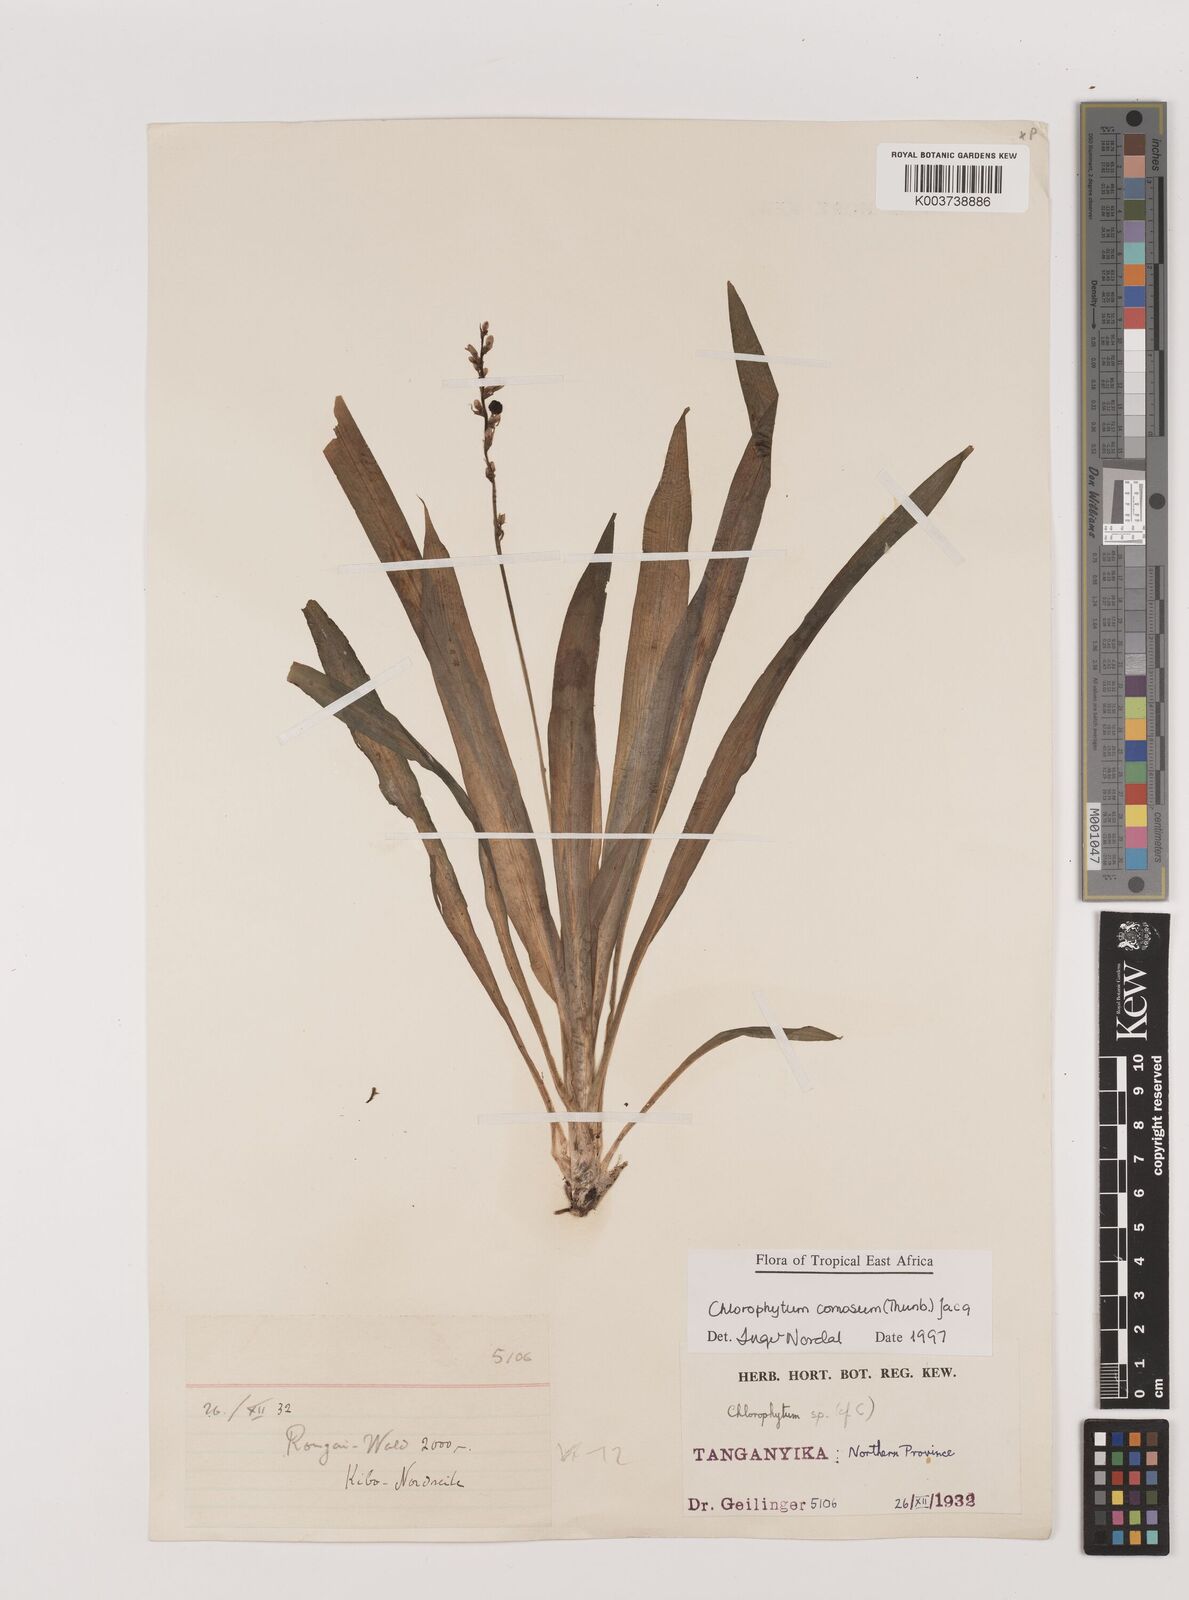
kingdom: Plantae
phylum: Tracheophyta
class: Liliopsida
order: Asparagales
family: Asparagaceae
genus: Chlorophytum
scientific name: Chlorophytum comosum
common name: Spider plant
